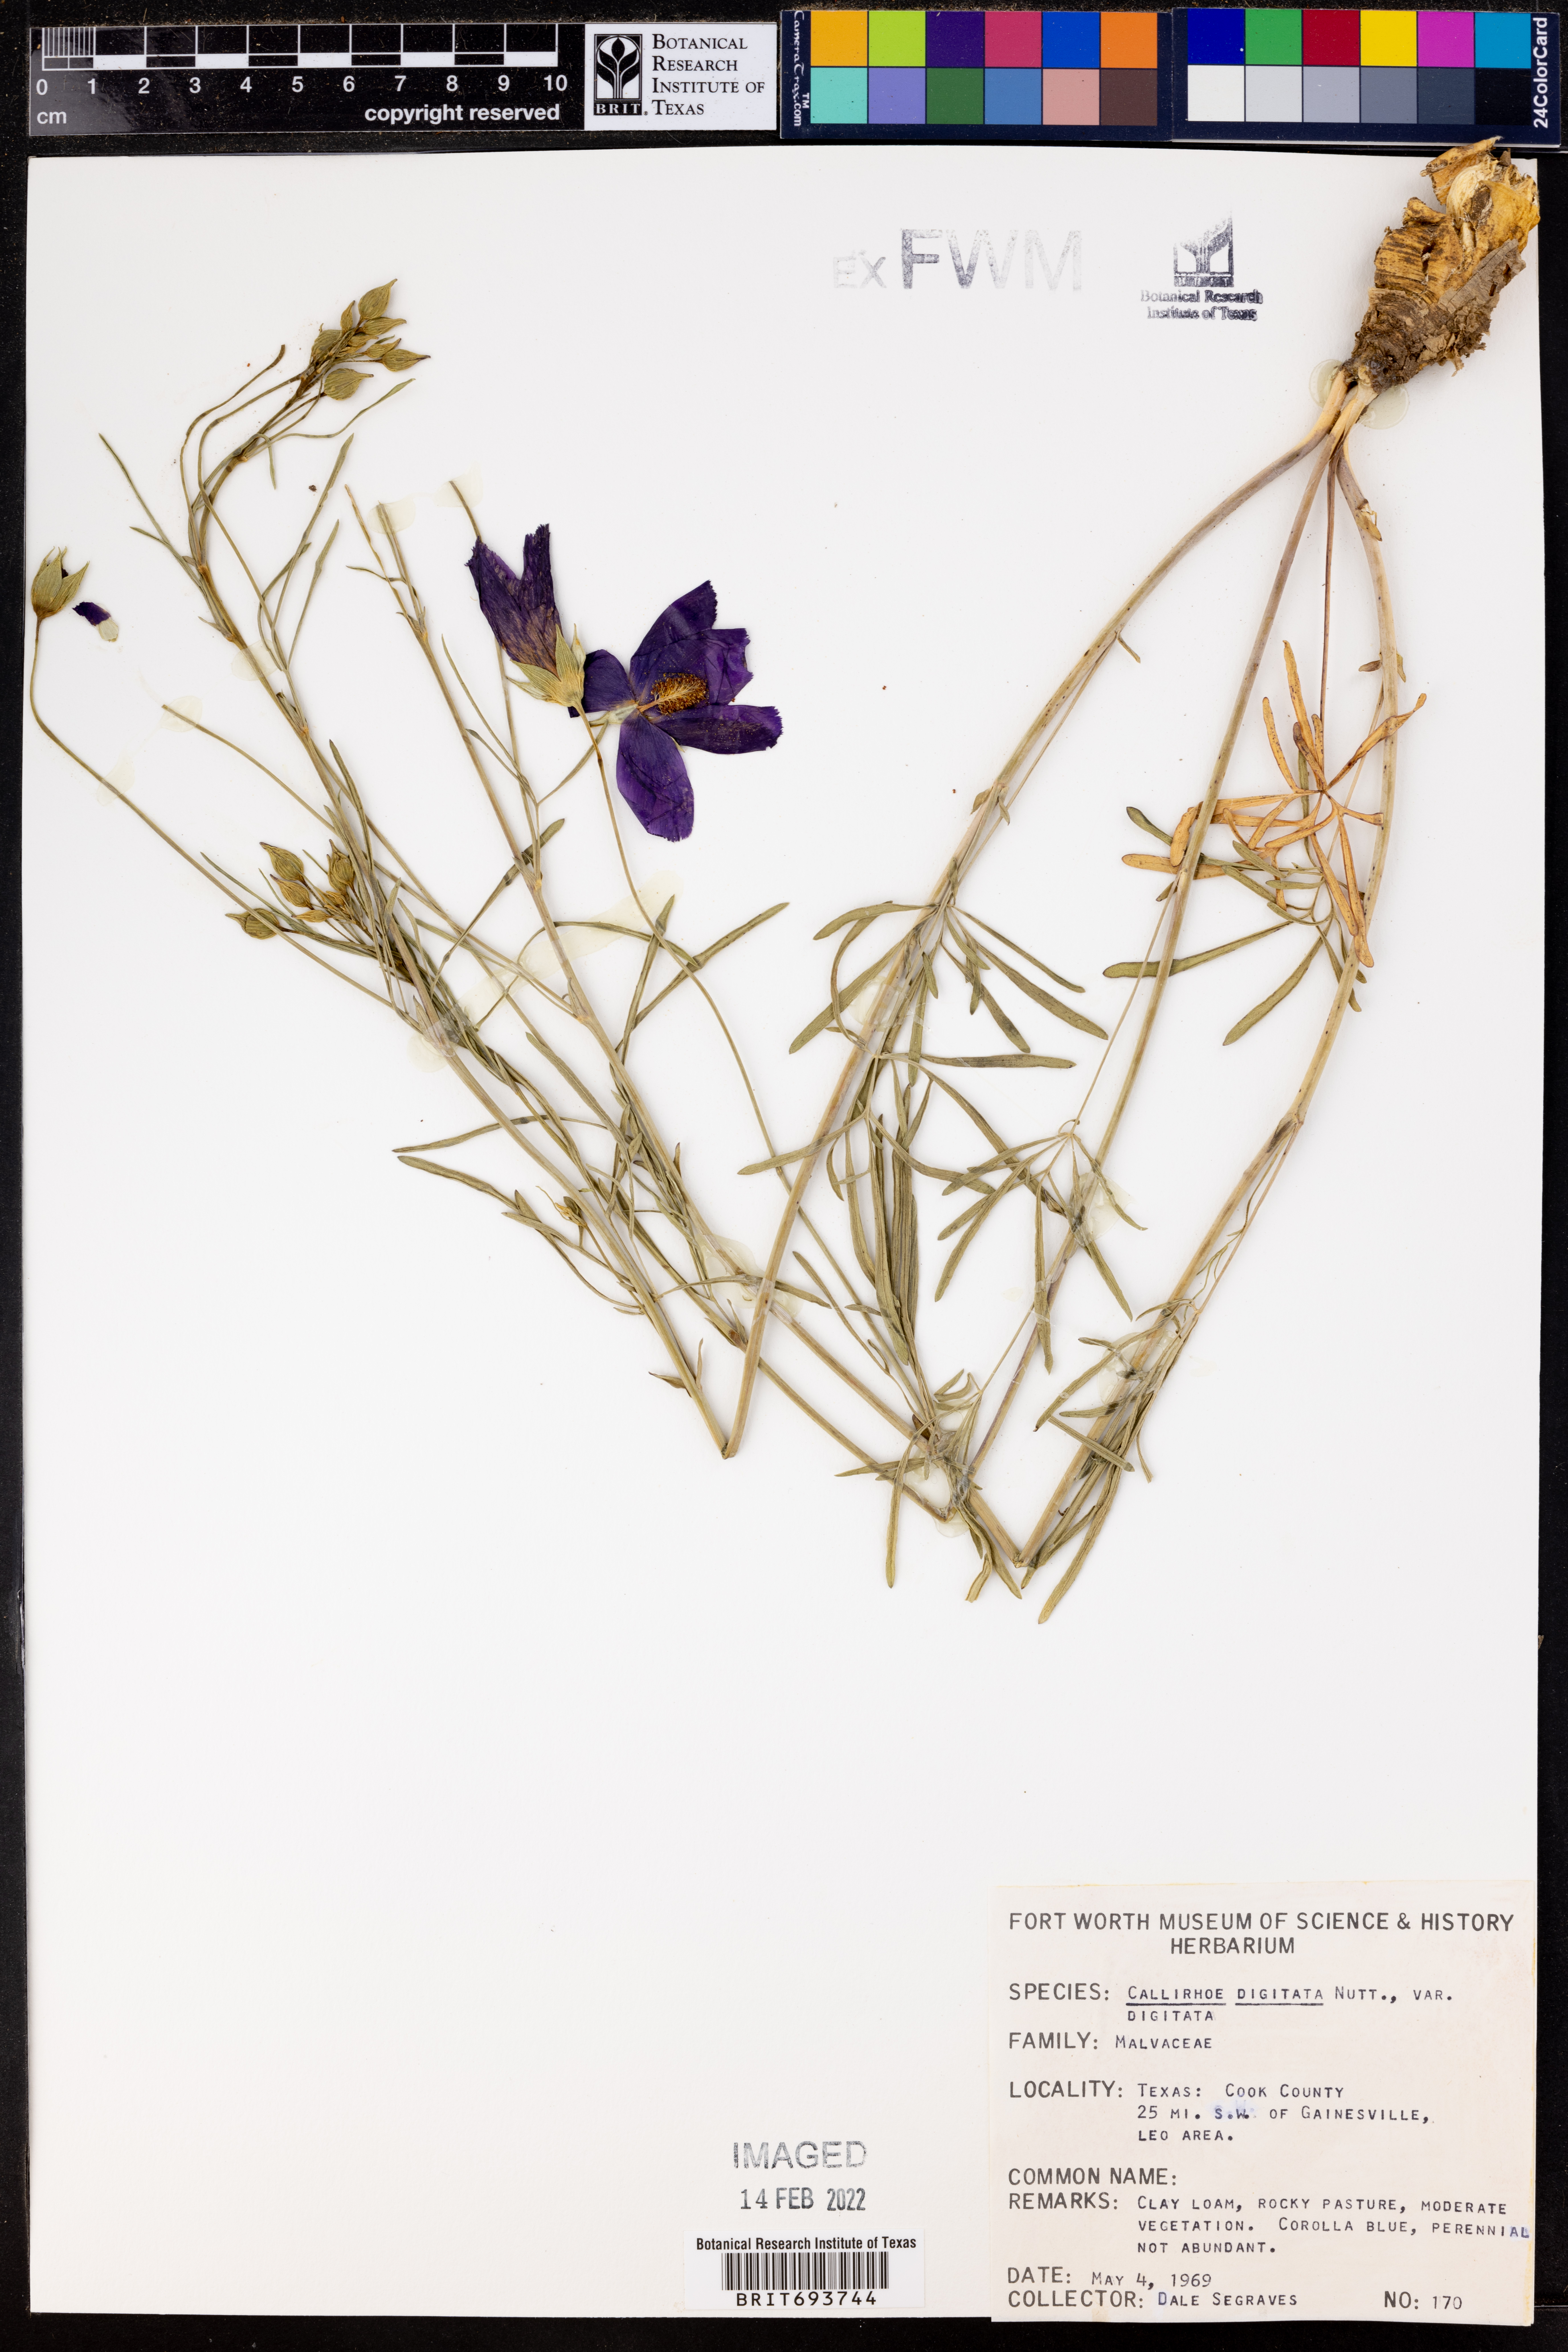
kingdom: Plantae
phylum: Tracheophyta
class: Magnoliopsida
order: Malvales
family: Malvaceae
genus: Callirhoe
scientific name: Callirhoe digitata
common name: Finger poppy-mallow
